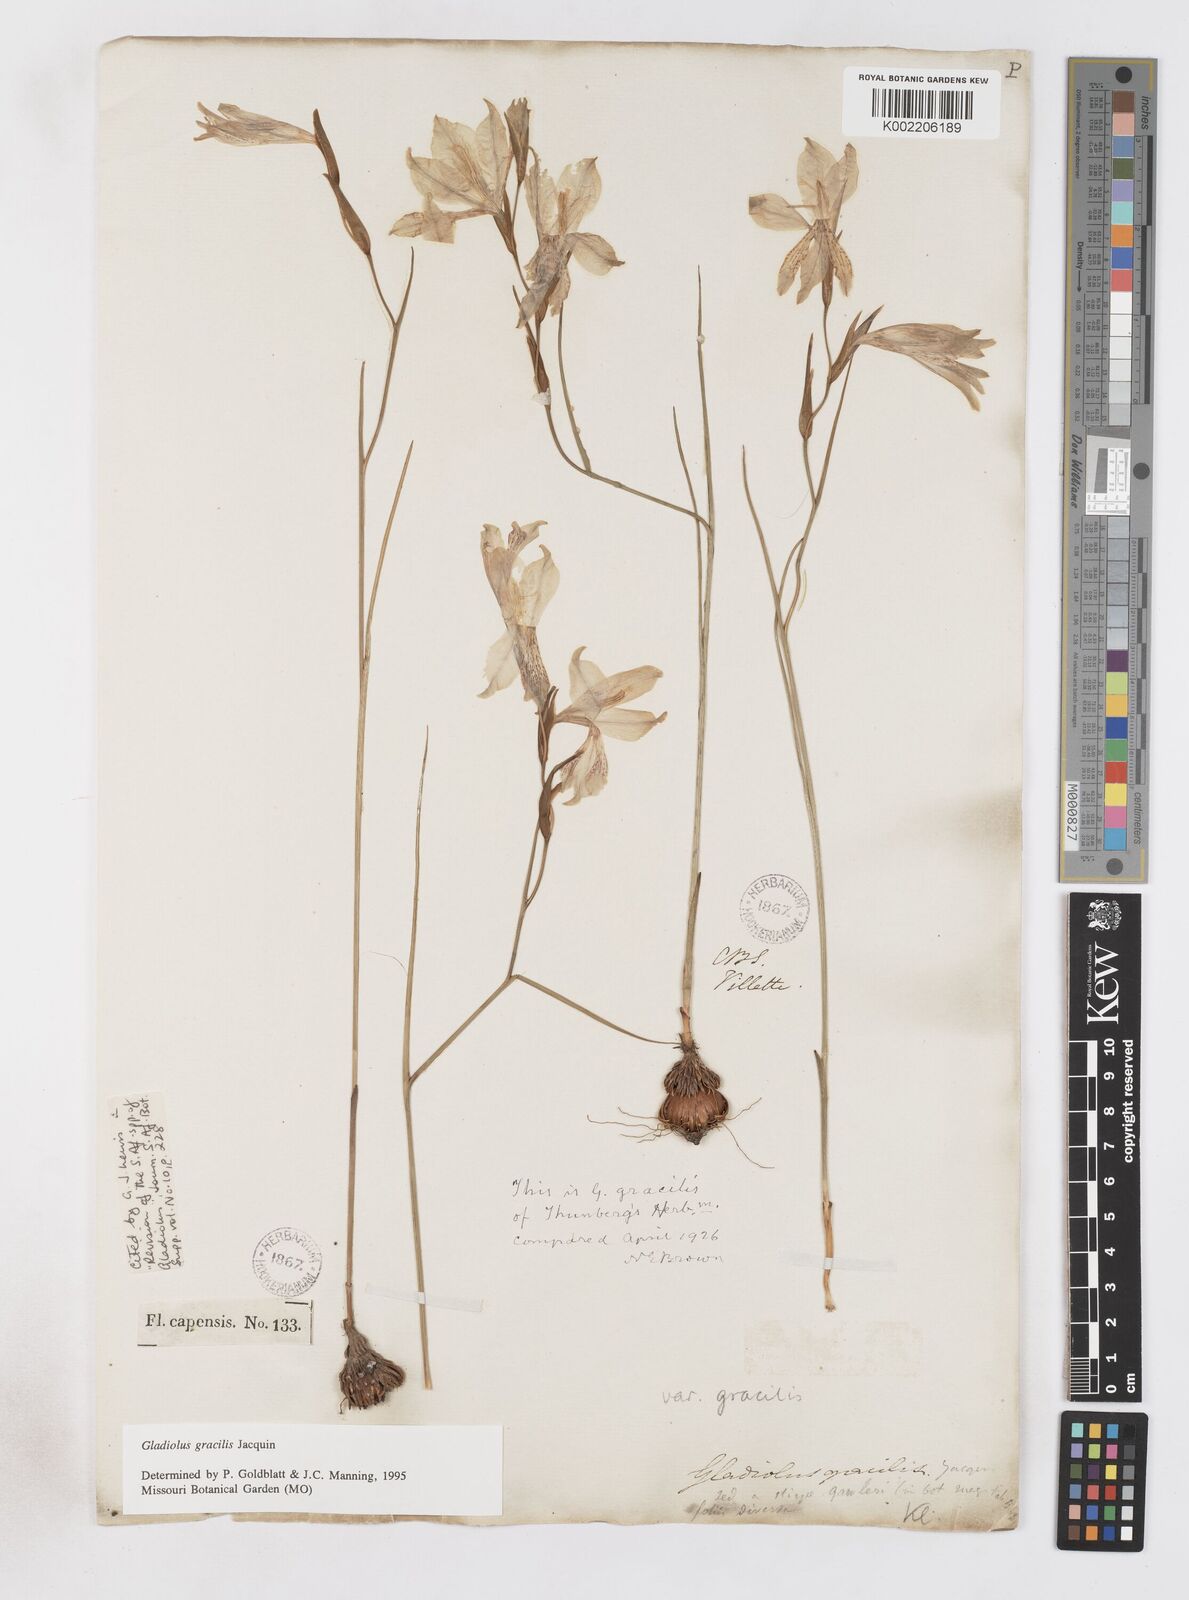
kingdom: Plantae
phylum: Tracheophyta
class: Liliopsida
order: Asparagales
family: Iridaceae
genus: Gladiolus
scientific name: Gladiolus gracilis
